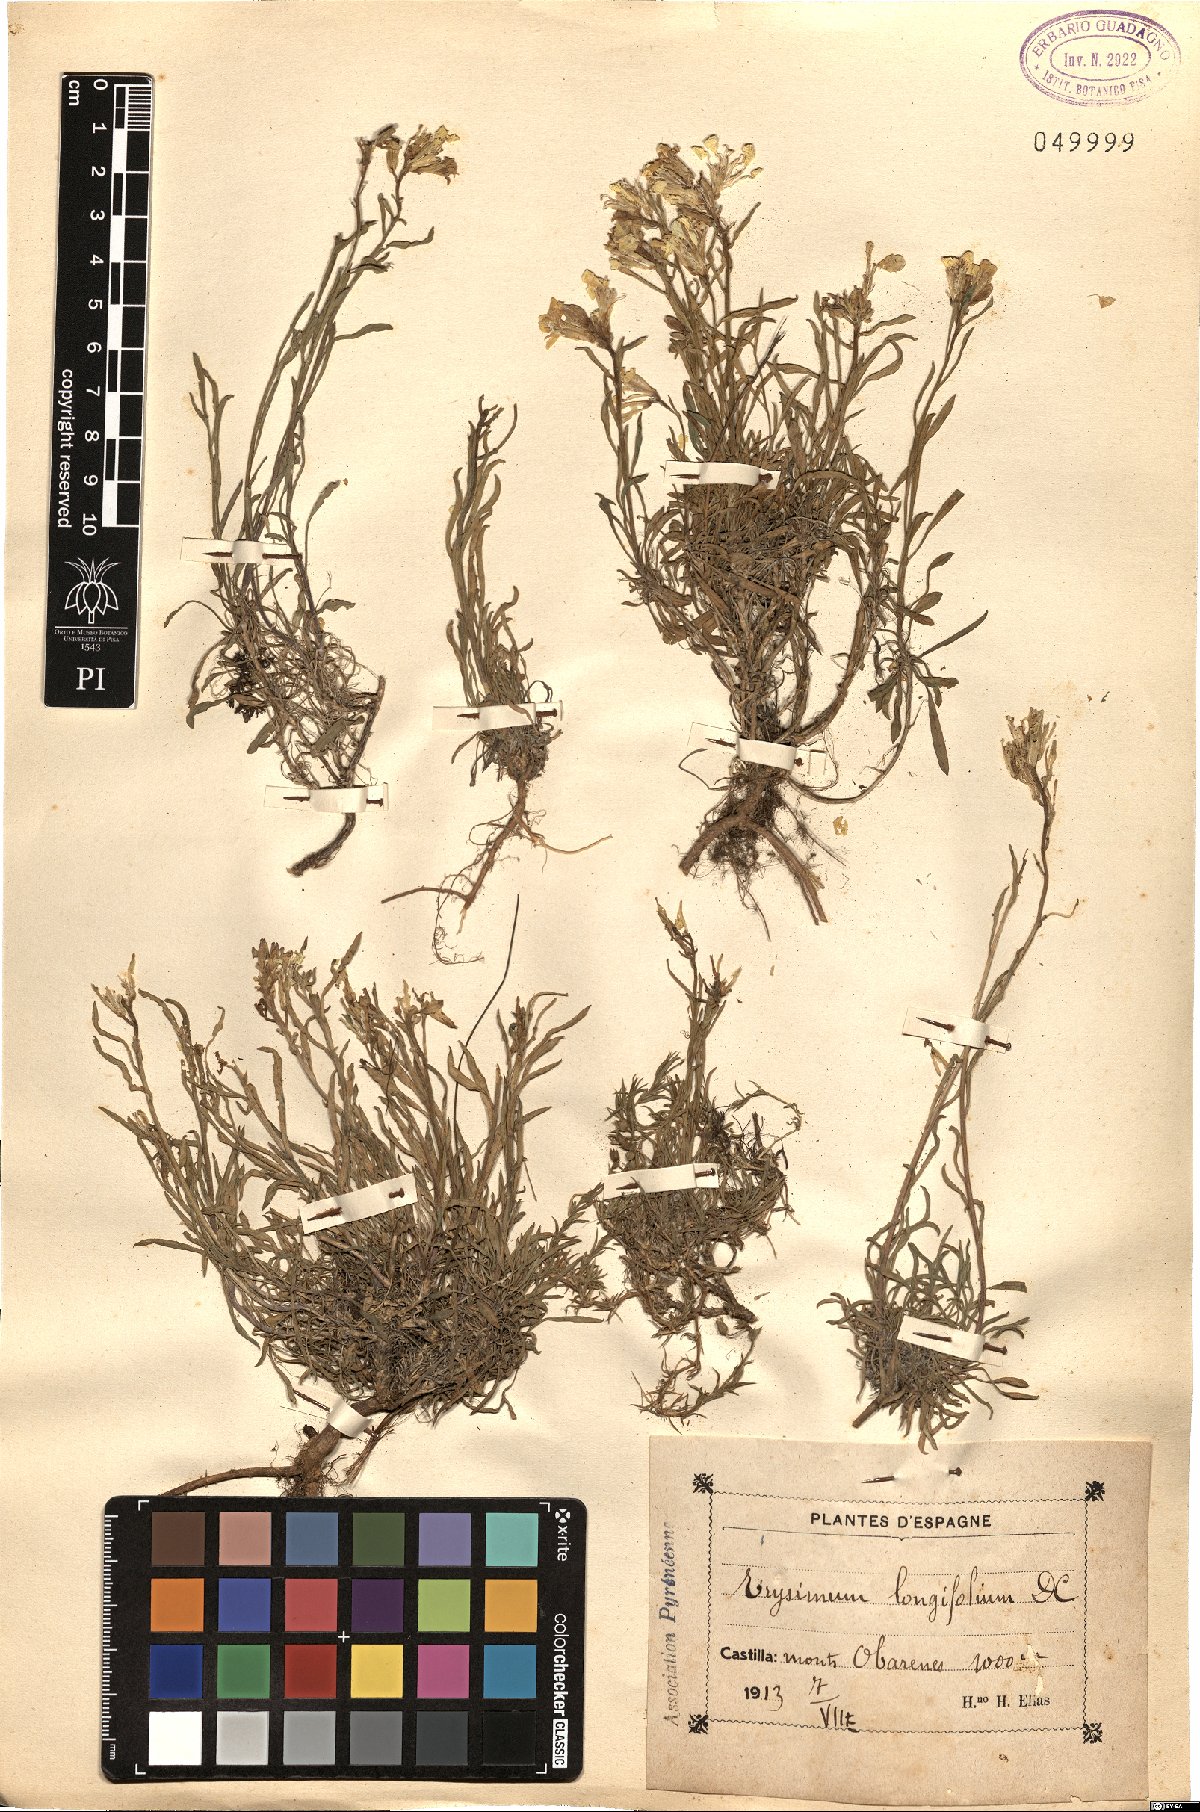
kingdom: Plantae
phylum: Tracheophyta
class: Magnoliopsida
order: Brassicales
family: Brassicaceae
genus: Erysimum
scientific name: Erysimum duriaei
